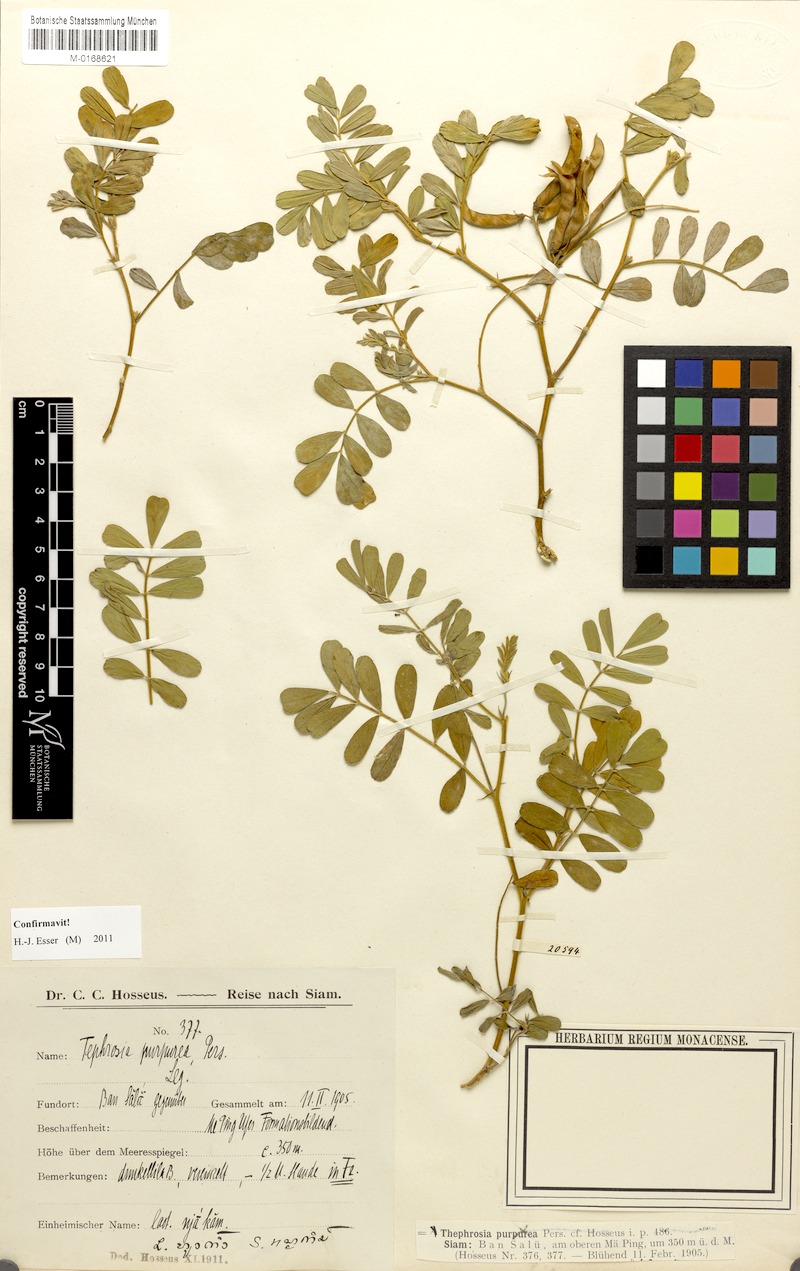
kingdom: Plantae
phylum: Tracheophyta
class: Magnoliopsida
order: Fabales
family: Fabaceae
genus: Tephrosia
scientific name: Tephrosia purpurea
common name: Fishpoison
